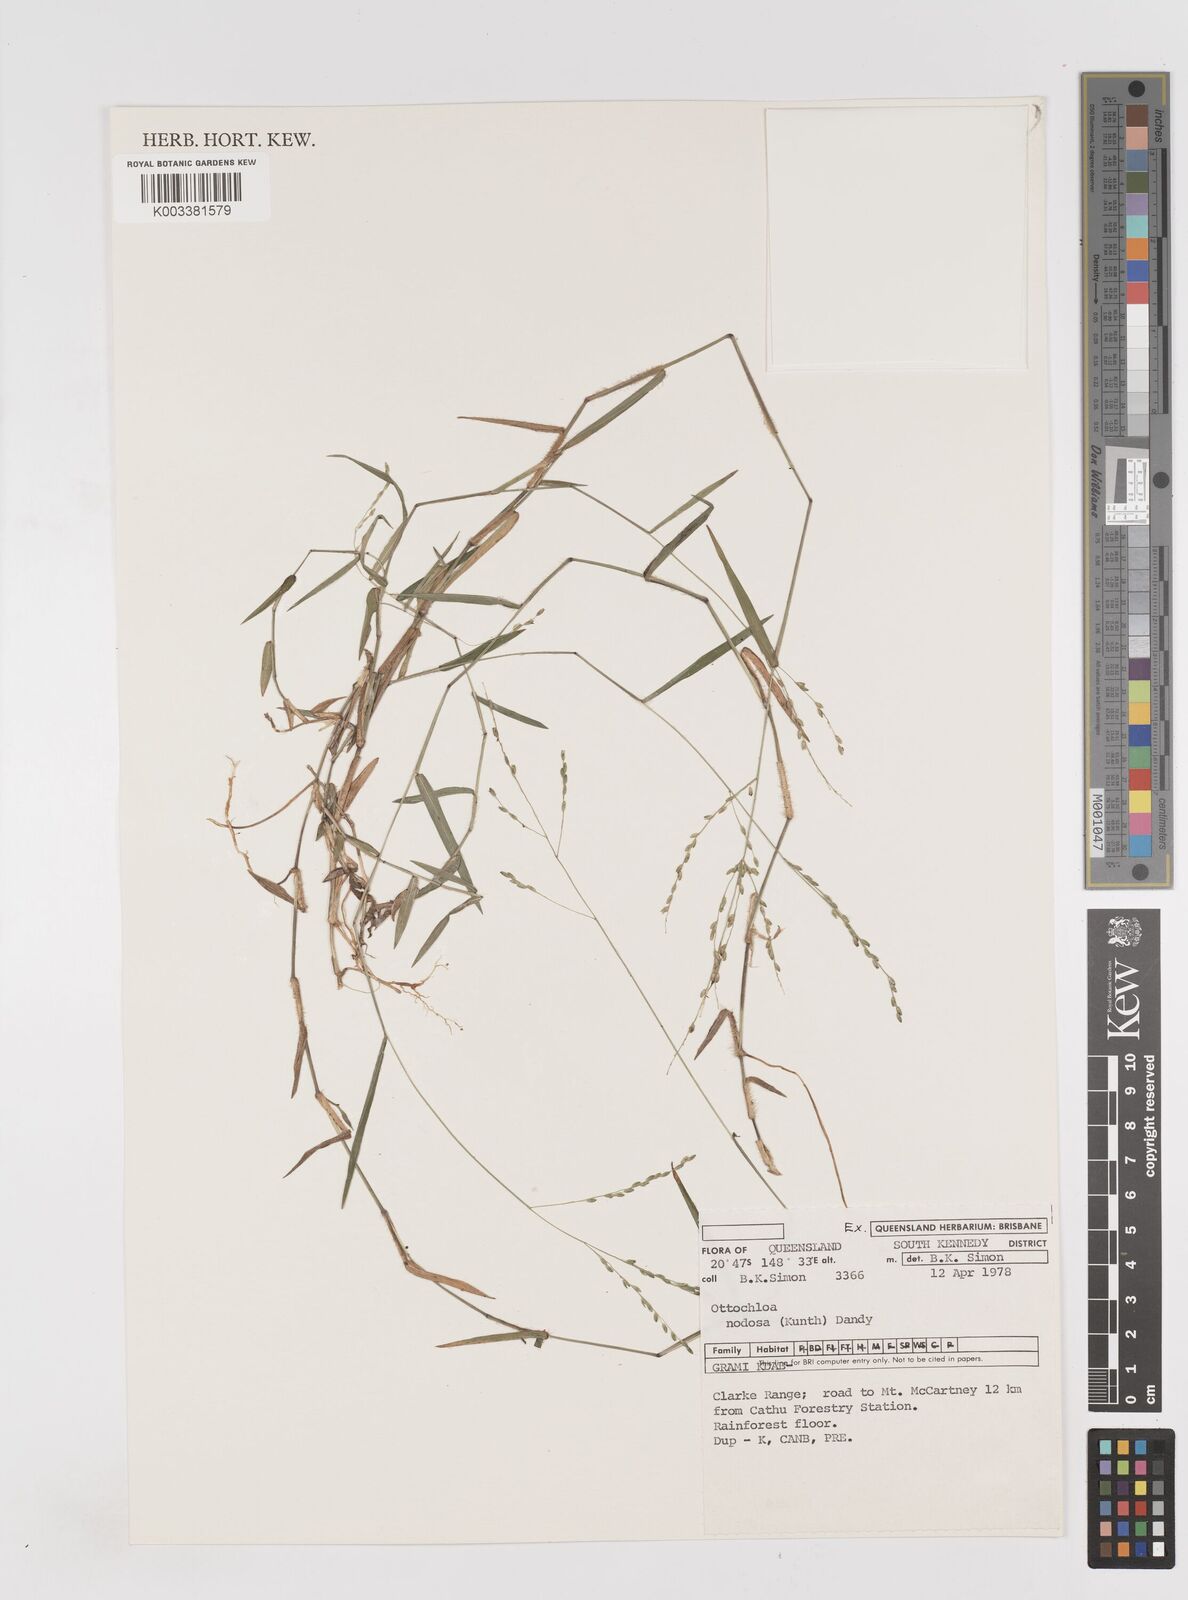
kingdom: Plantae
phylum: Tracheophyta
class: Liliopsida
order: Poales
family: Poaceae
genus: Ottochloa
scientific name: Ottochloa nodosa
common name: Slender-panic grass
